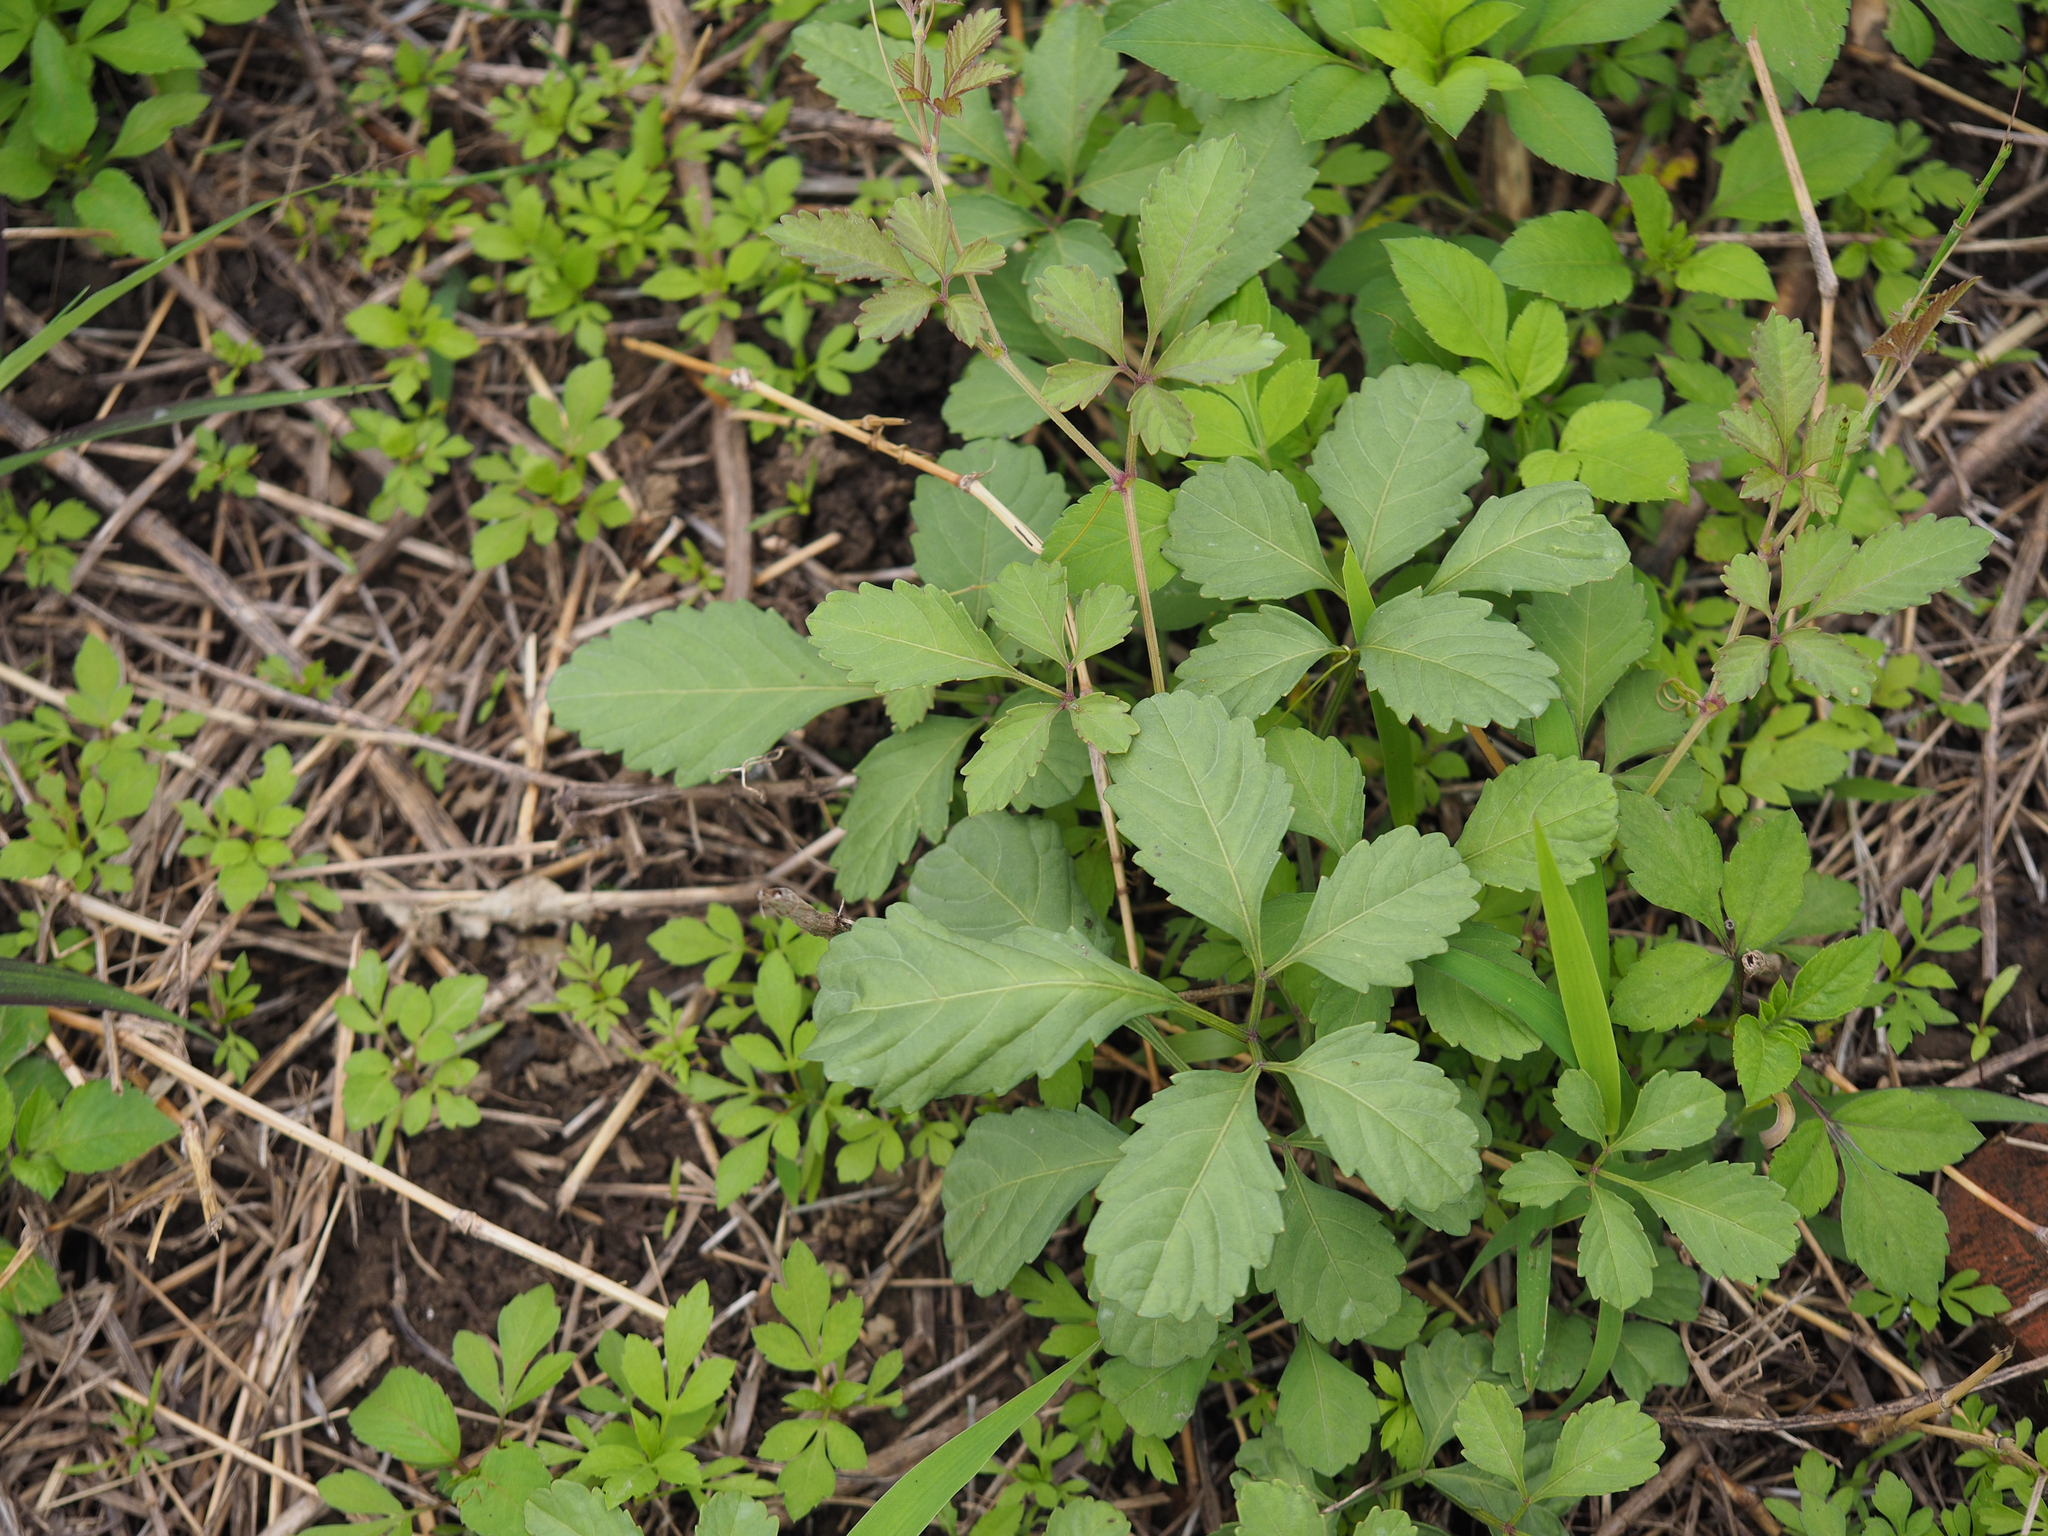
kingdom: Plantae
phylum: Tracheophyta
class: Magnoliopsida
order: Vitales
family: Vitaceae
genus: Causonis
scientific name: Causonis japonica
